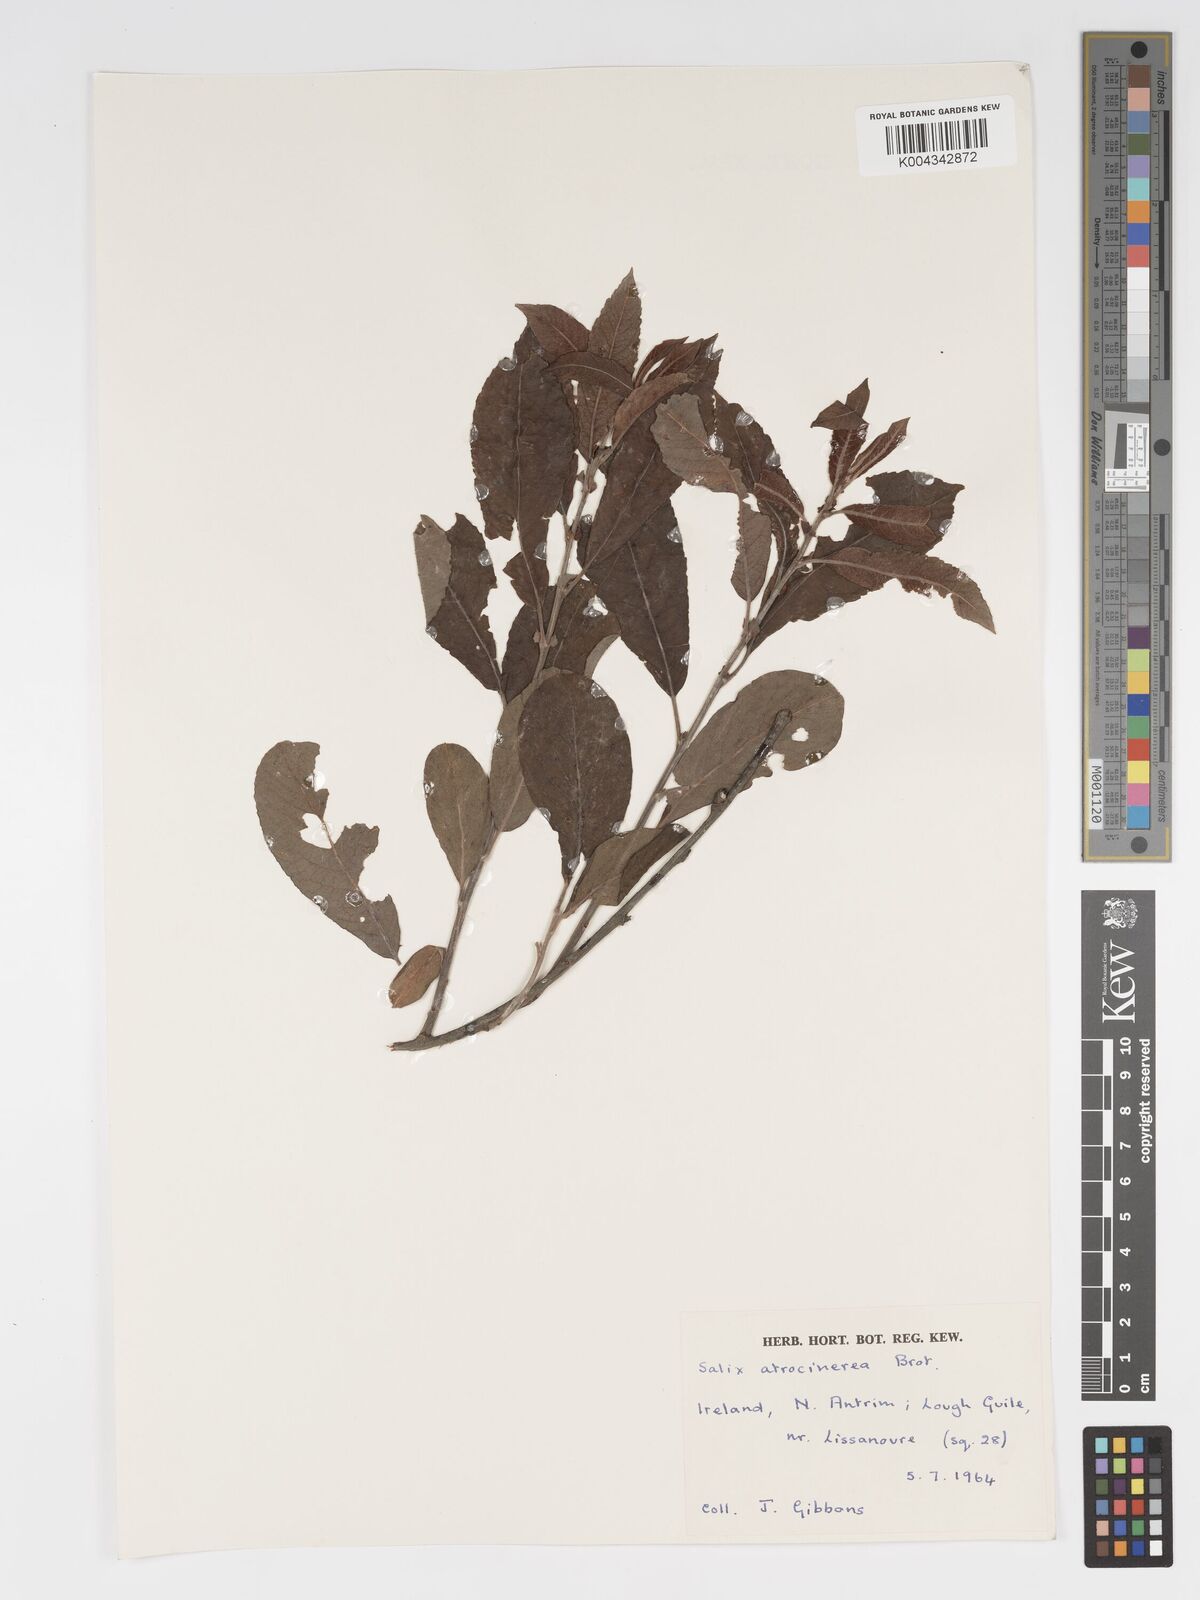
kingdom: Plantae
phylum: Tracheophyta
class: Magnoliopsida
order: Malpighiales
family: Salicaceae
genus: Salix
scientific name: Salix
